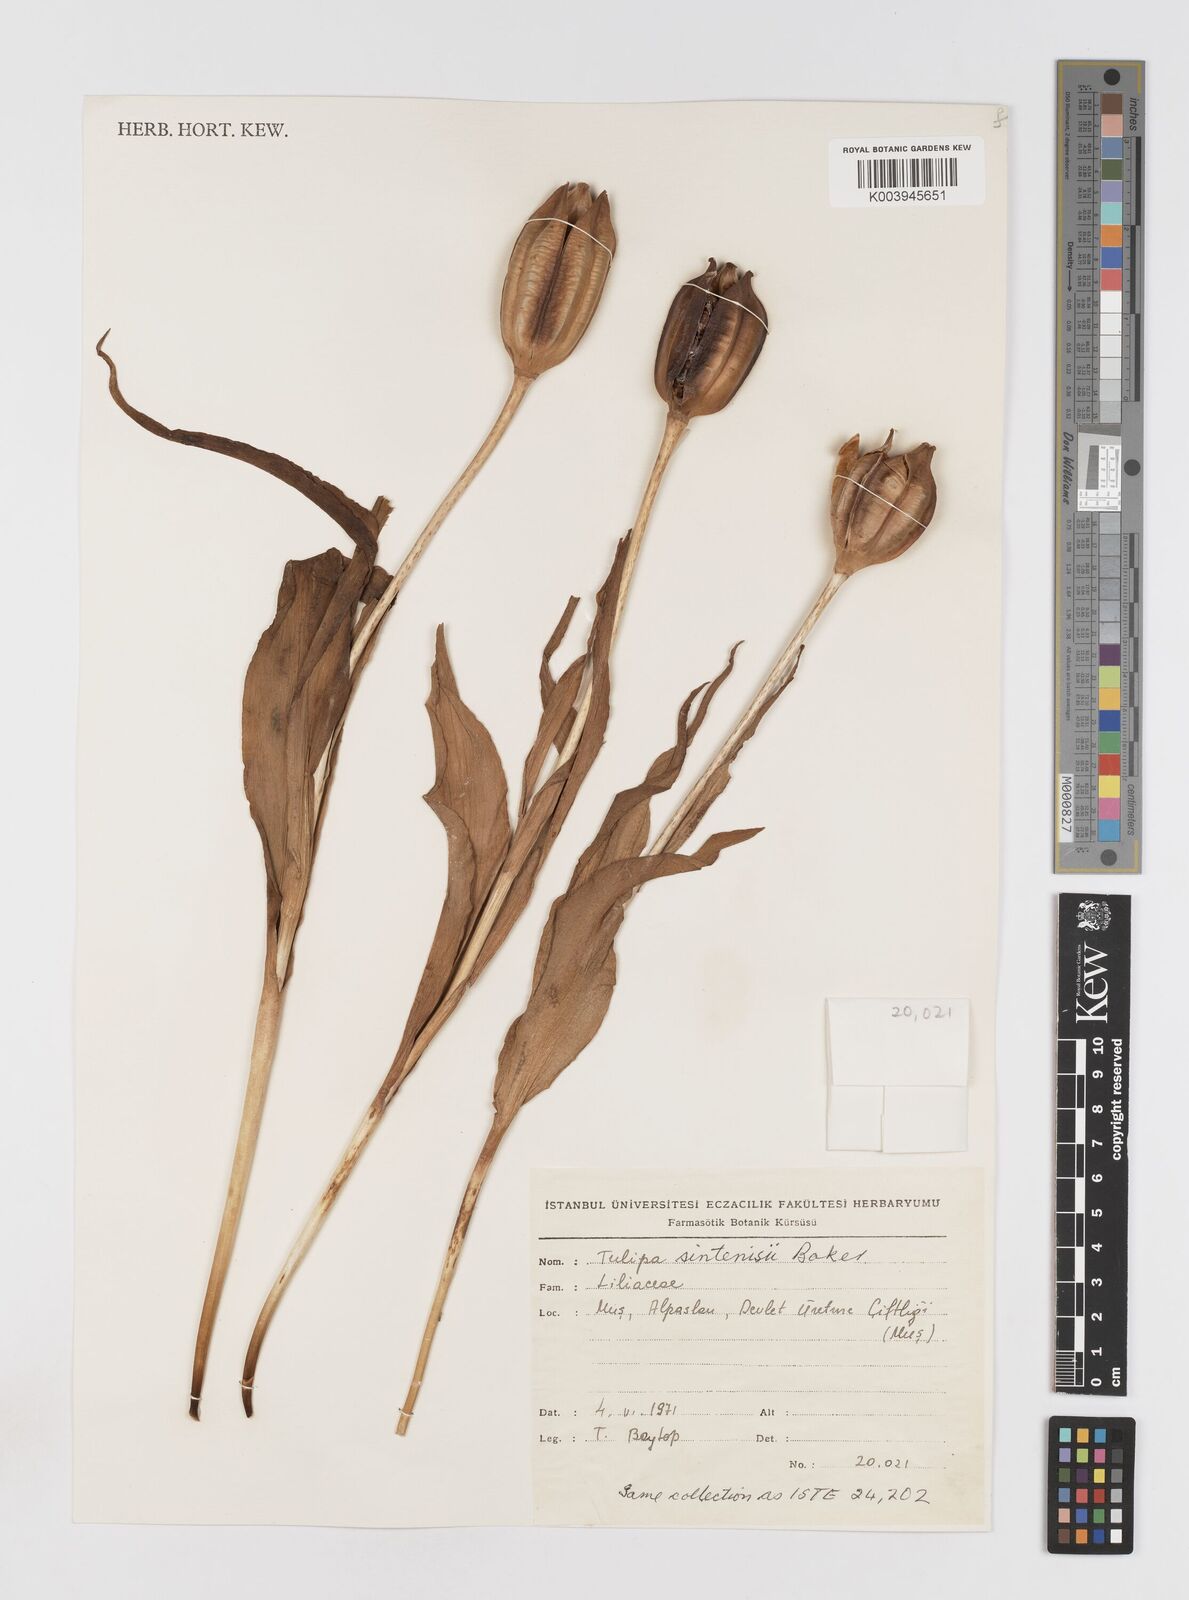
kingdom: Plantae
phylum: Tracheophyta
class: Liliopsida
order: Liliales
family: Liliaceae
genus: Tulipa
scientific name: Tulipa aleppensis
